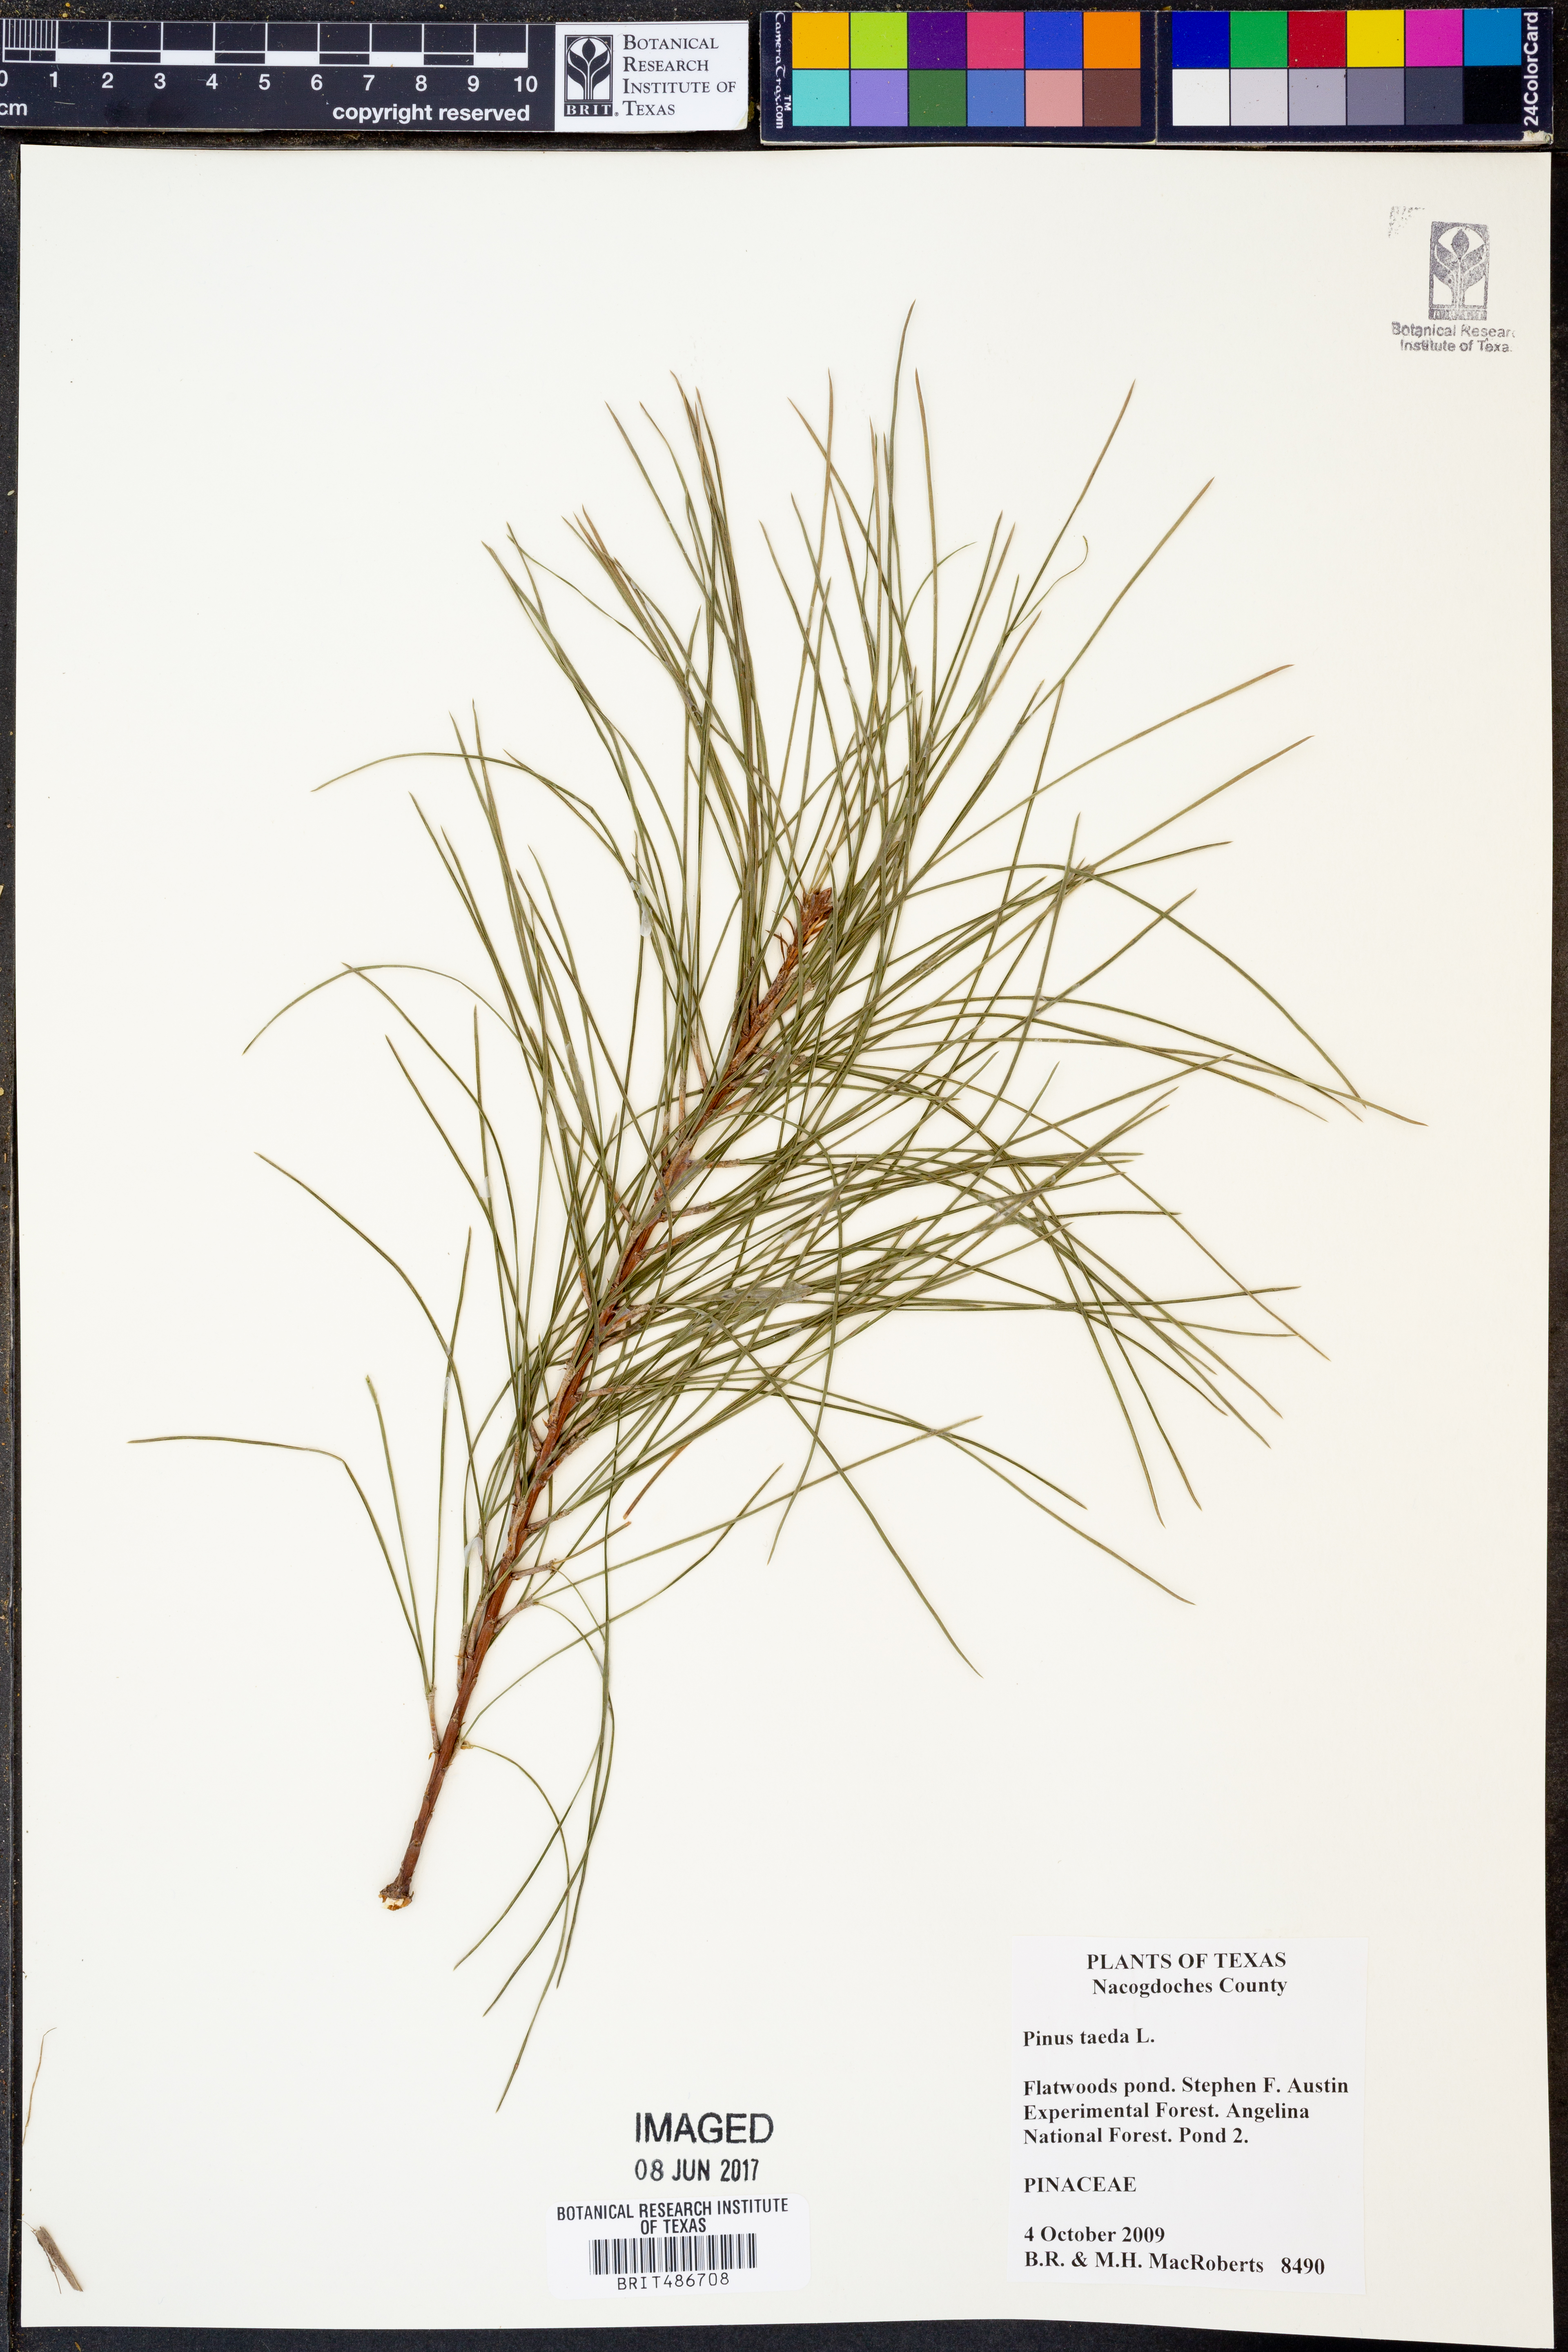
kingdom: Plantae
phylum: Tracheophyta
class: Pinopsida
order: Pinales
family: Pinaceae
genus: Pinus
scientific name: Pinus taeda
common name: Loblolly pine
